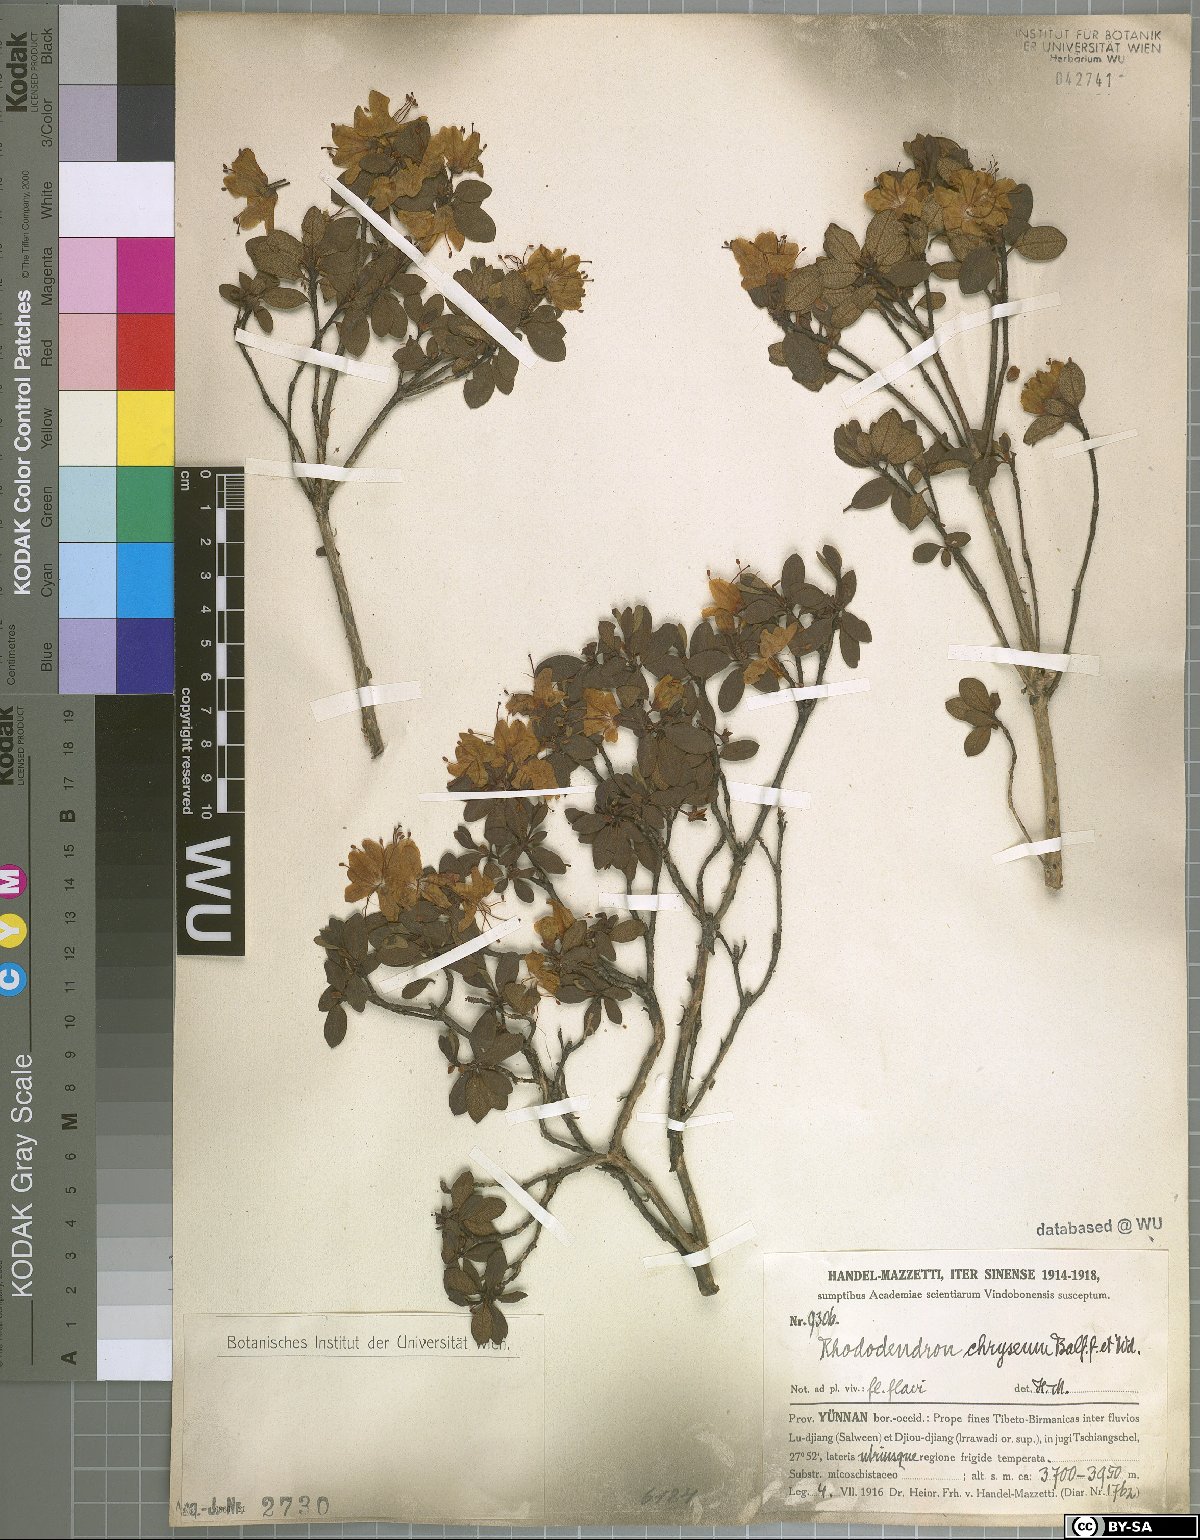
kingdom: Plantae
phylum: Tracheophyta
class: Magnoliopsida
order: Ericales
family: Ericaceae
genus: Rhododendron
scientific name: Rhododendron rupicola
